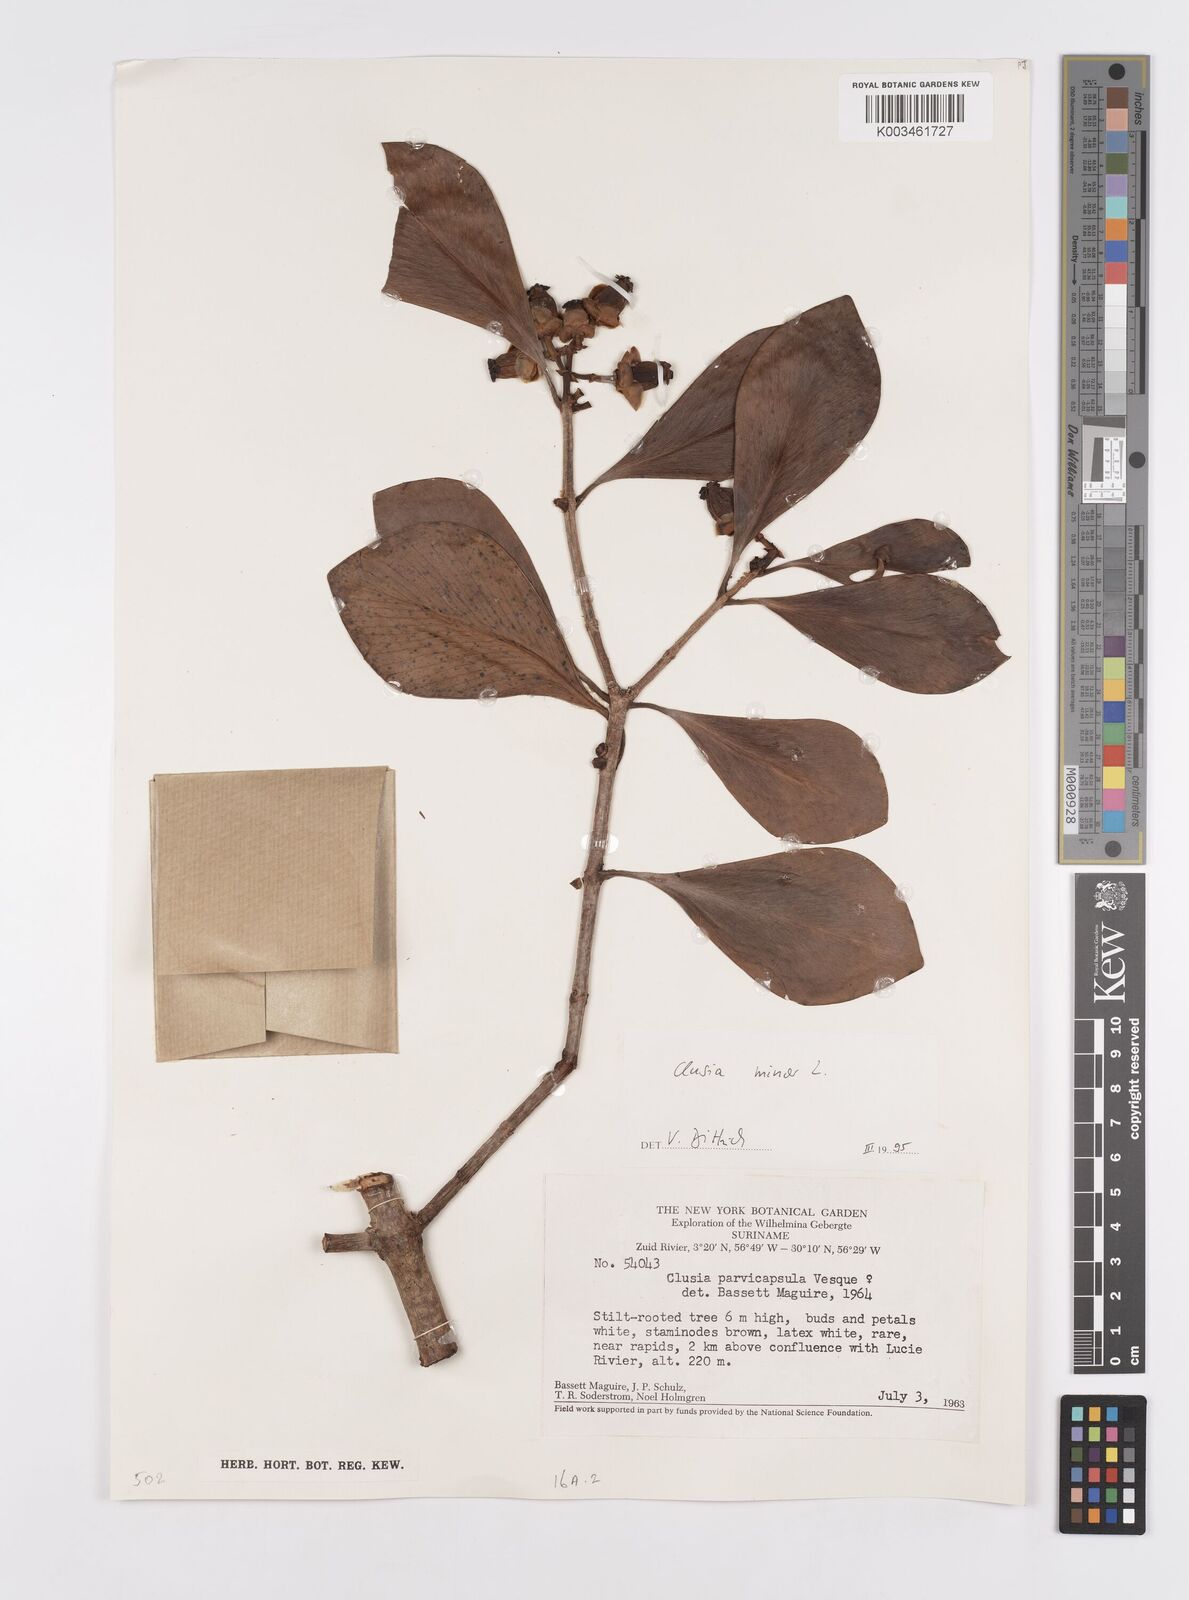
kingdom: Plantae
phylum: Tracheophyta
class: Magnoliopsida
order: Malpighiales
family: Clusiaceae
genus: Clusia
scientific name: Clusia minor
